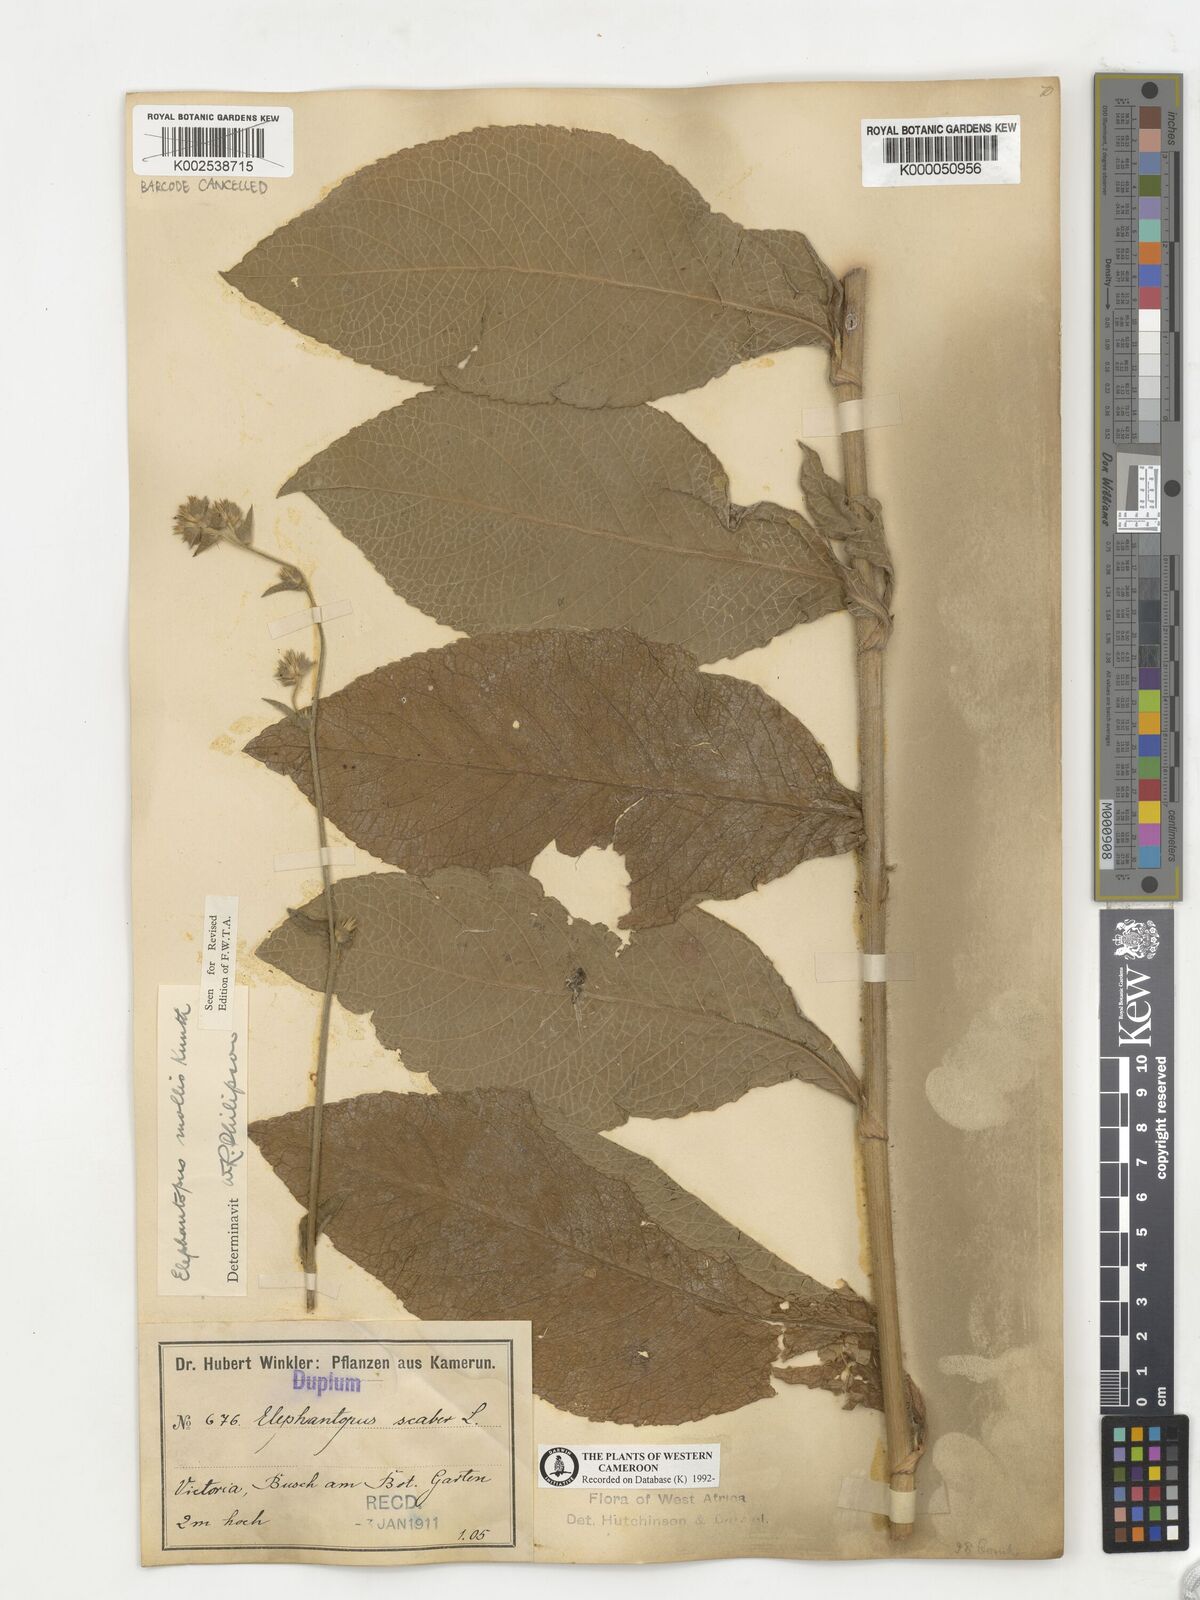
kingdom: Plantae
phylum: Tracheophyta
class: Magnoliopsida
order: Asterales
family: Asteraceae
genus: Elephantopus
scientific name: Elephantopus mollis
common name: Soft elephantsfoot
